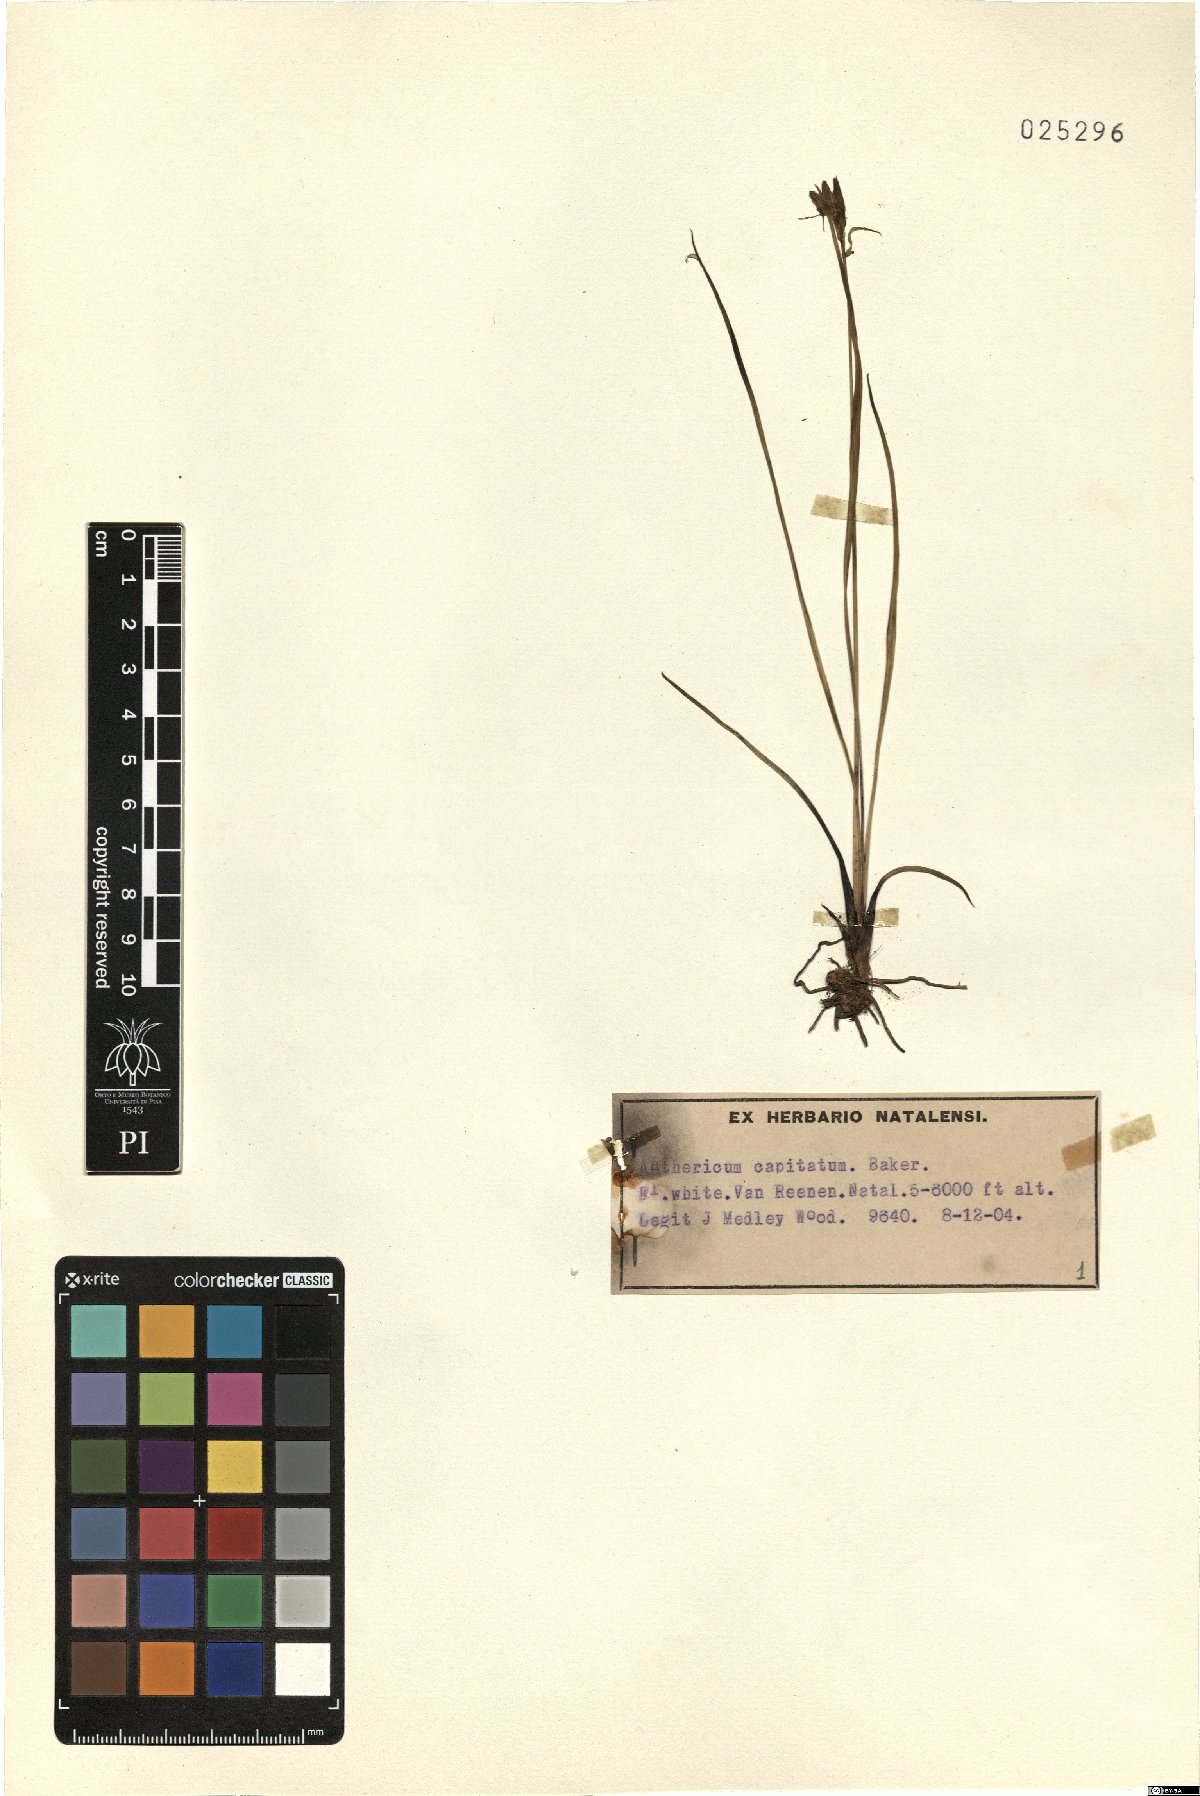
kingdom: Plantae
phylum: Tracheophyta
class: Liliopsida
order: Asparagales
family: Asparagaceae
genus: Chlorophytum
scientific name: Chlorophytum cooperi
